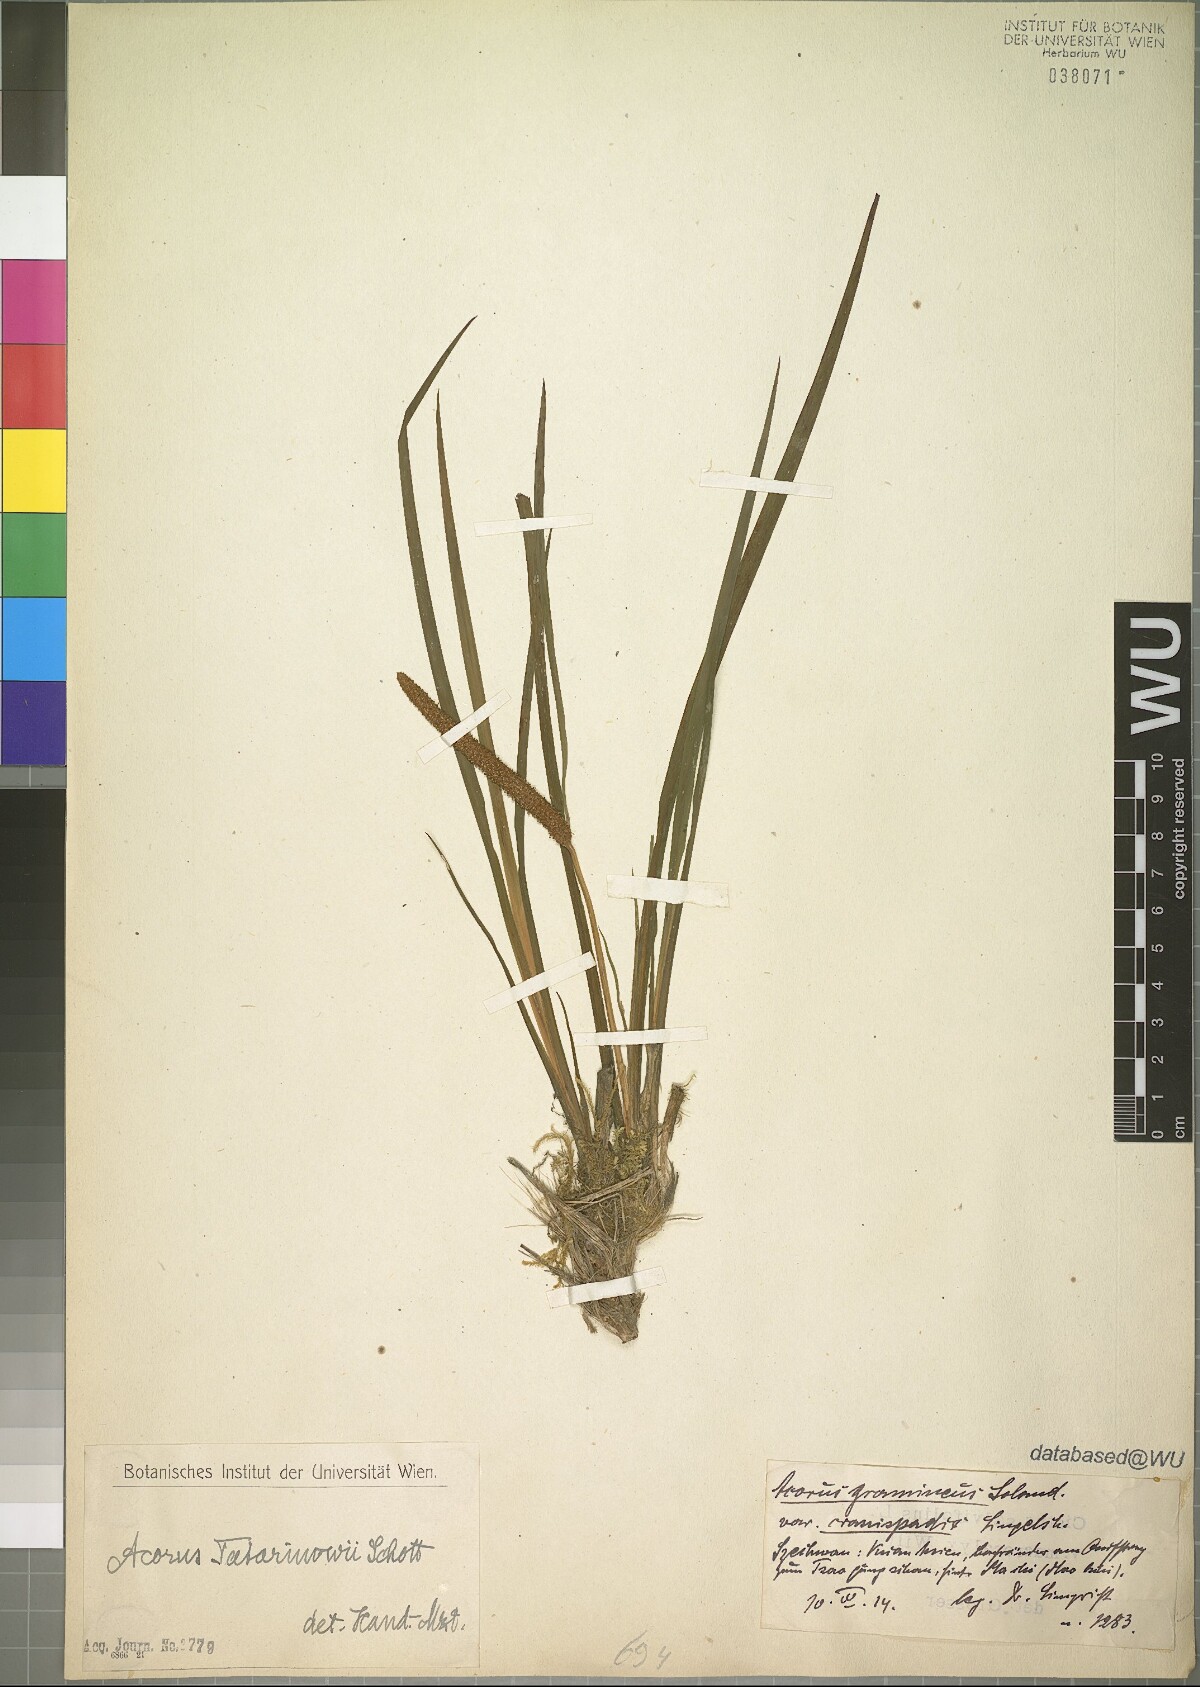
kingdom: Plantae
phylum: Tracheophyta
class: Liliopsida
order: Acorales
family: Acoraceae
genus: Acorus
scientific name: Acorus calamus
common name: Sweet-flag
